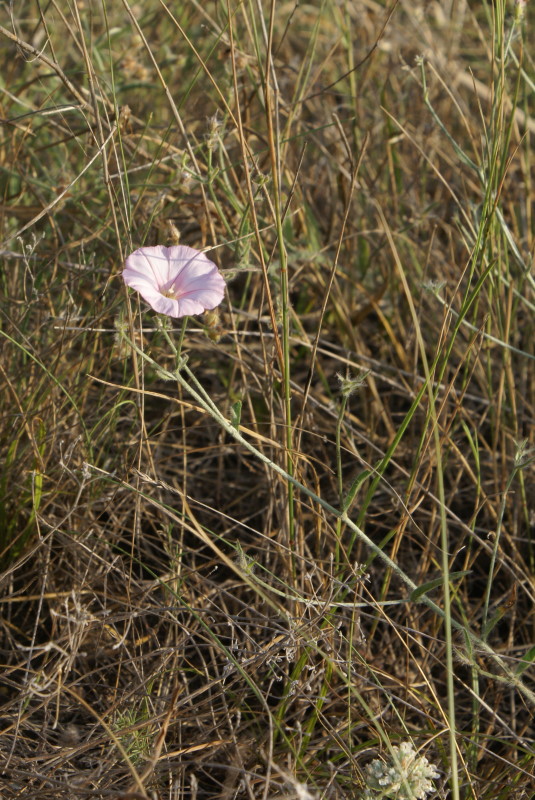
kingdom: Plantae
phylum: Tracheophyta
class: Magnoliopsida
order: Solanales
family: Convolvulaceae
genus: Convolvulus
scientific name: Convolvulus cantabrica
